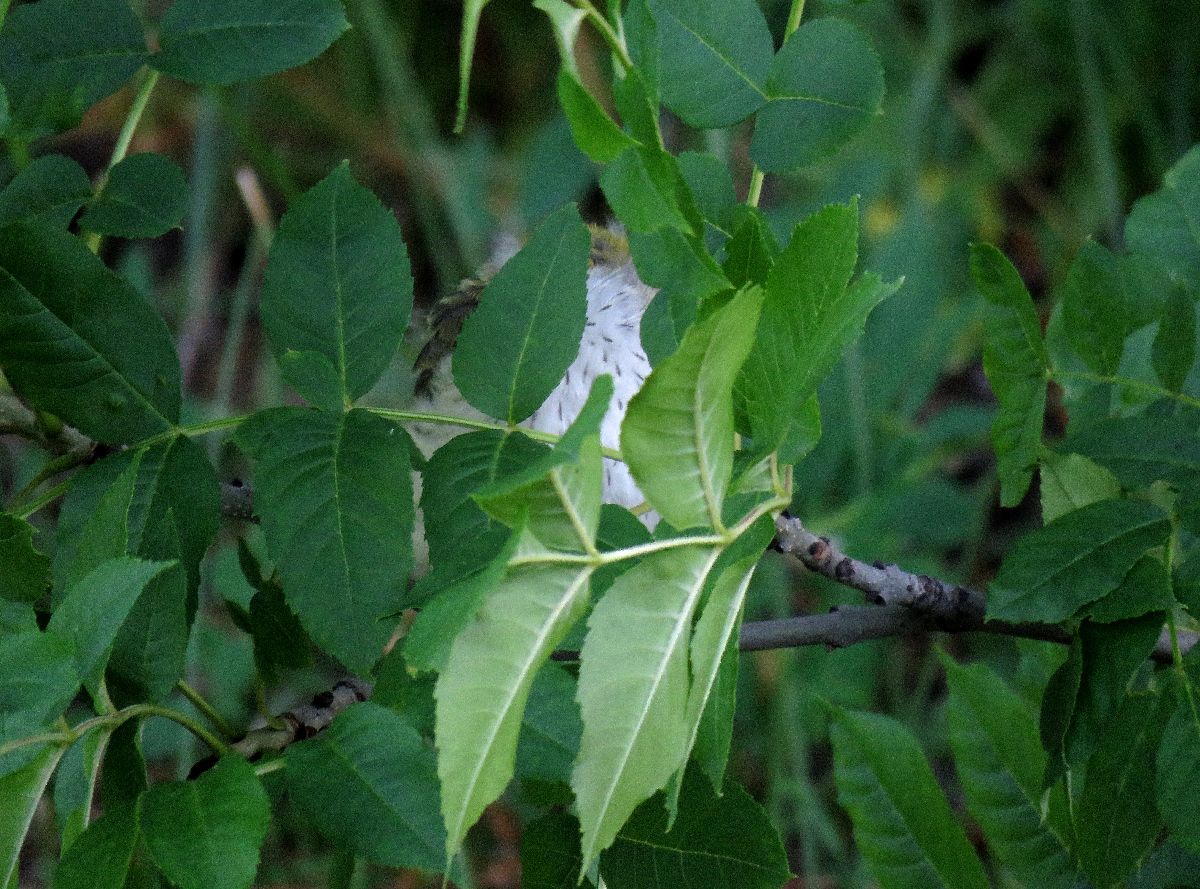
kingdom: Animalia
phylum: Chordata
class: Aves
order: Passeriformes
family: Oriolidae
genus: Oriolus
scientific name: Oriolus oriolus
